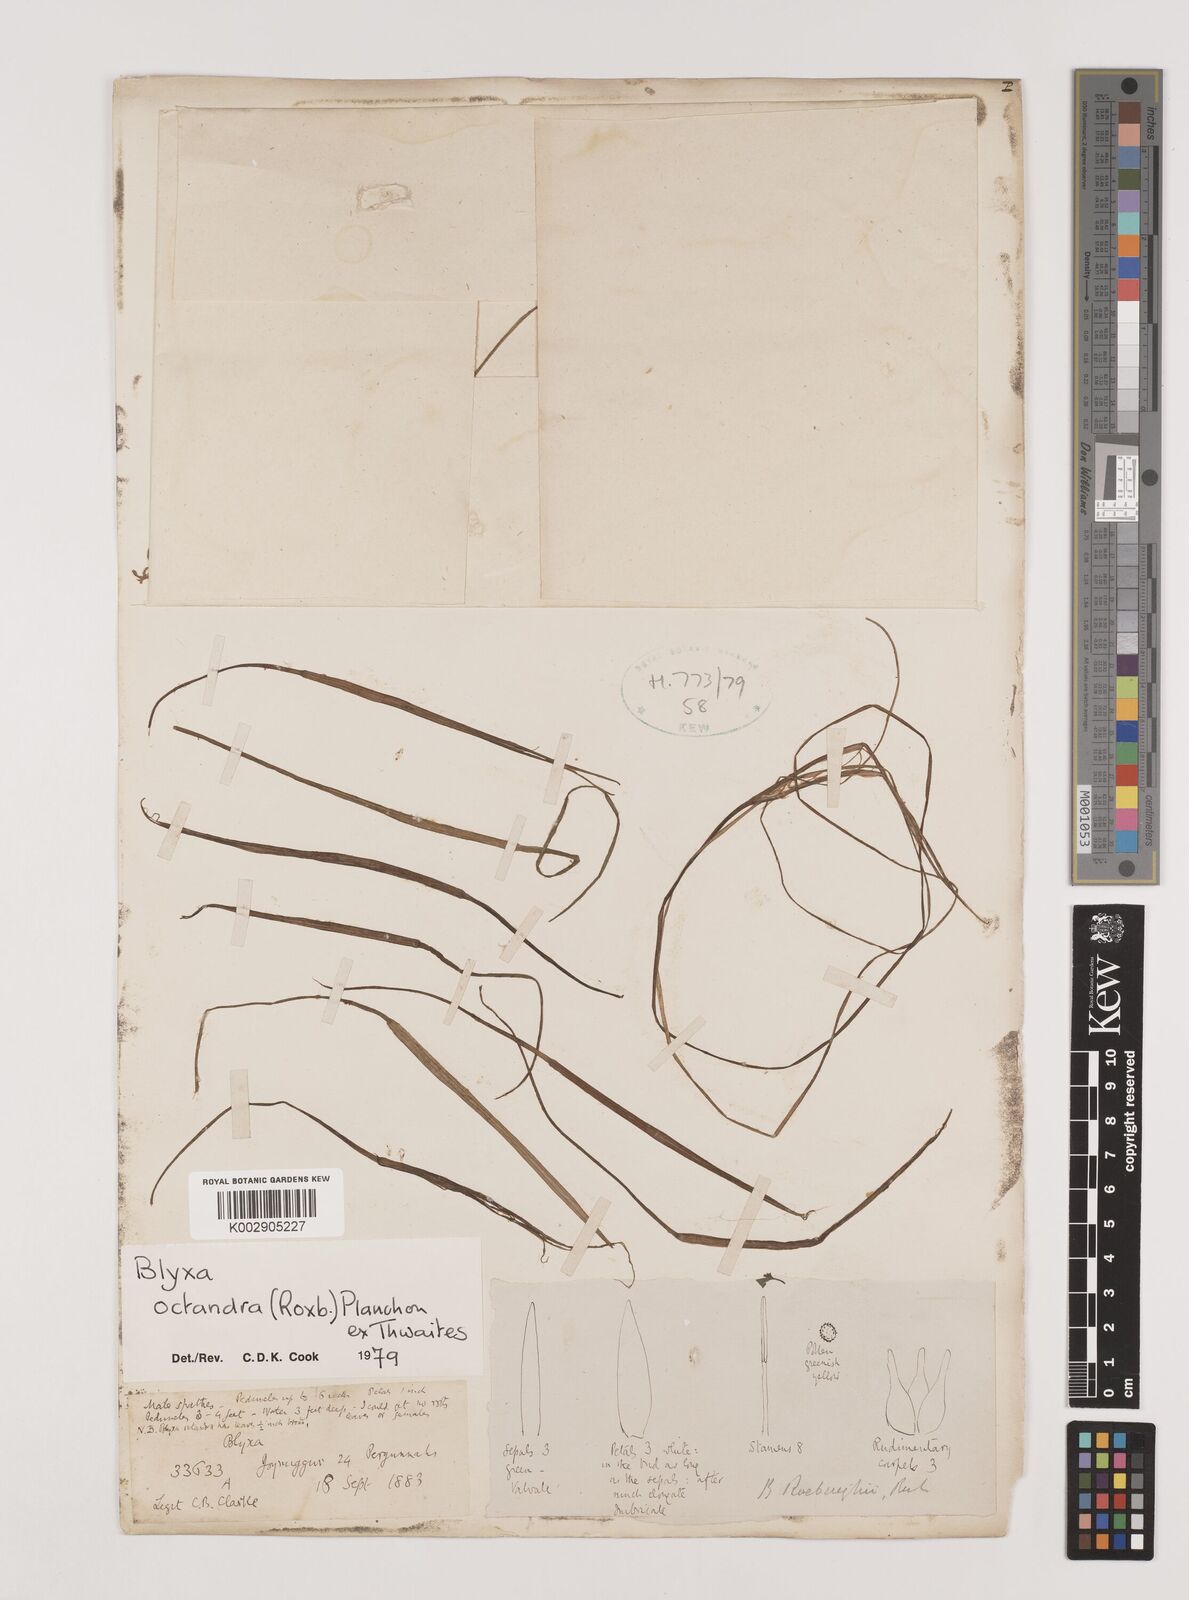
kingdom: Plantae
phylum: Tracheophyta
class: Liliopsida
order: Alismatales
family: Hydrocharitaceae
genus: Blyxa
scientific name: Blyxa octandra
